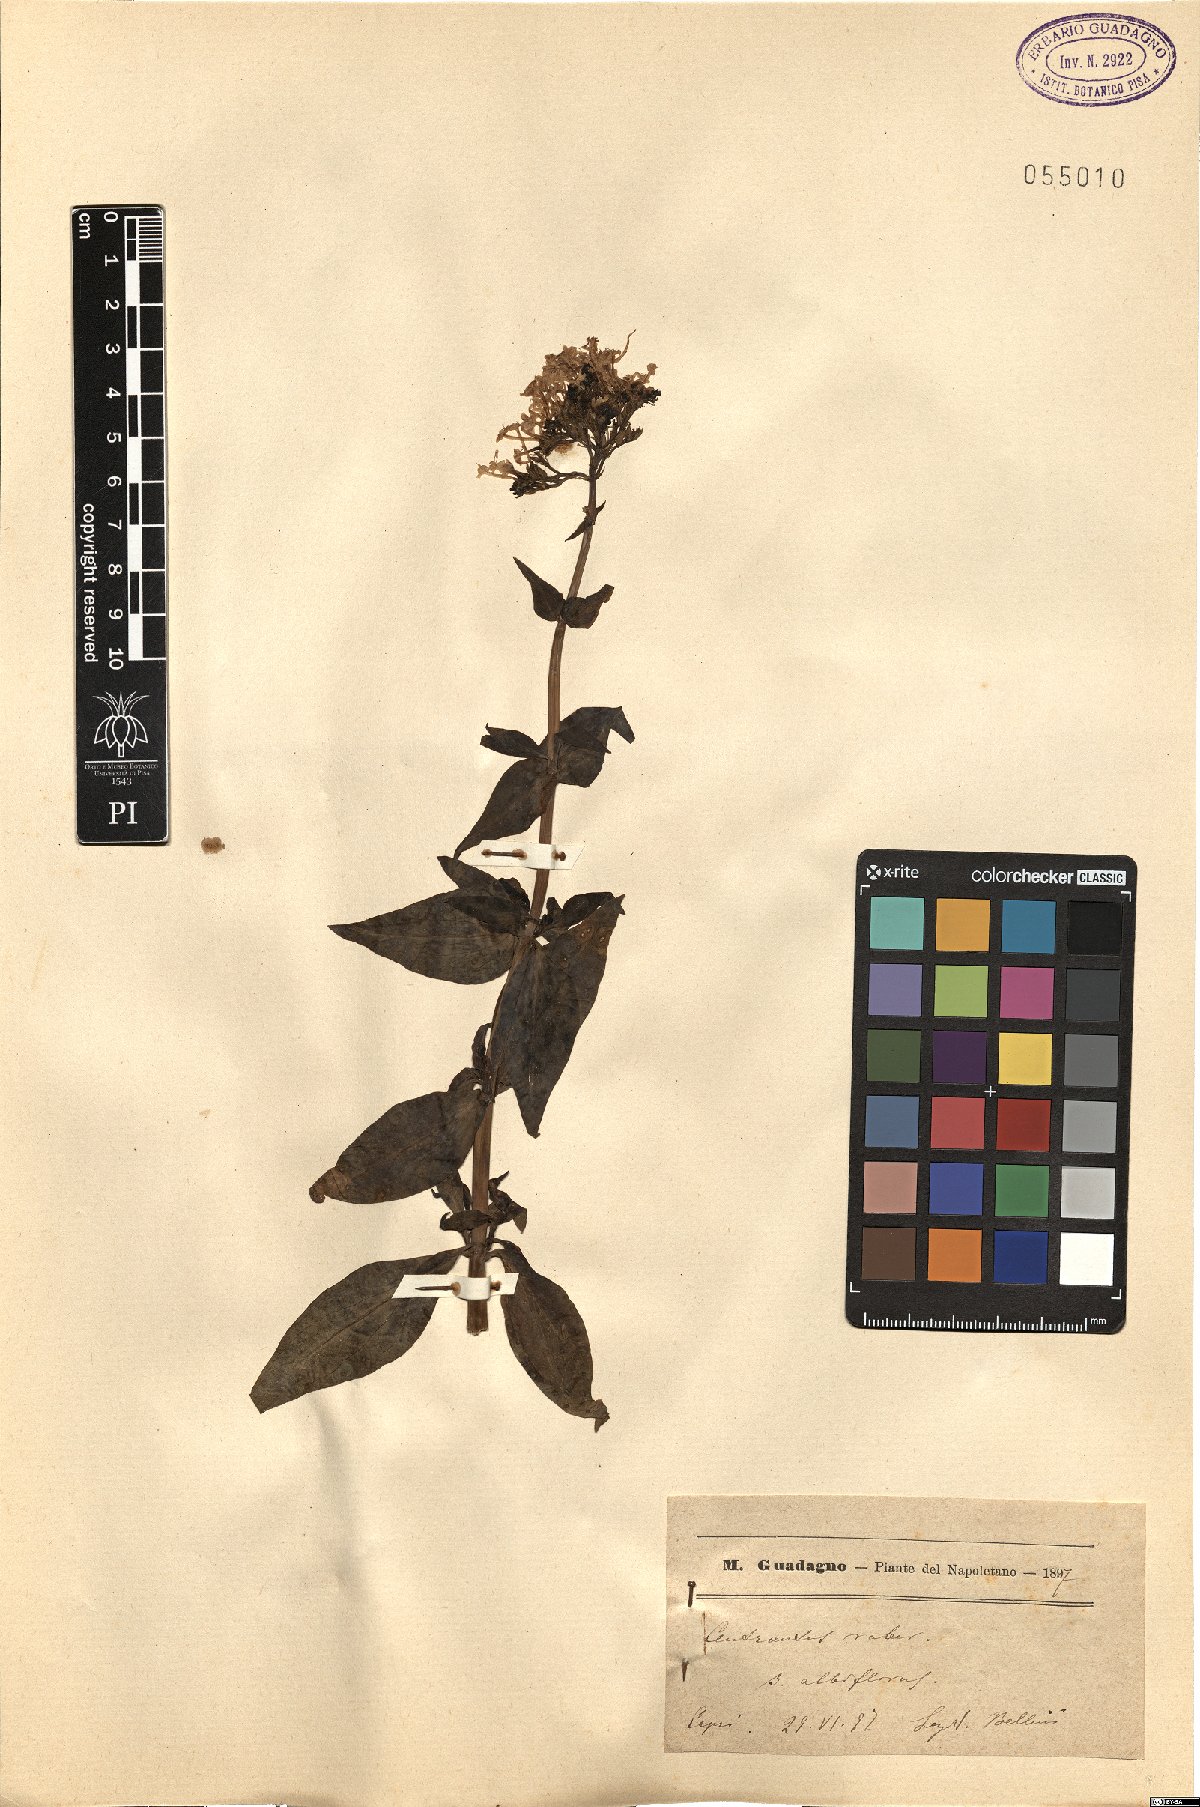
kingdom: Plantae
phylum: Tracheophyta
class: Magnoliopsida
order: Dipsacales
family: Caprifoliaceae
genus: Centranthus
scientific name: Centranthus ruber
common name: Red valerian
